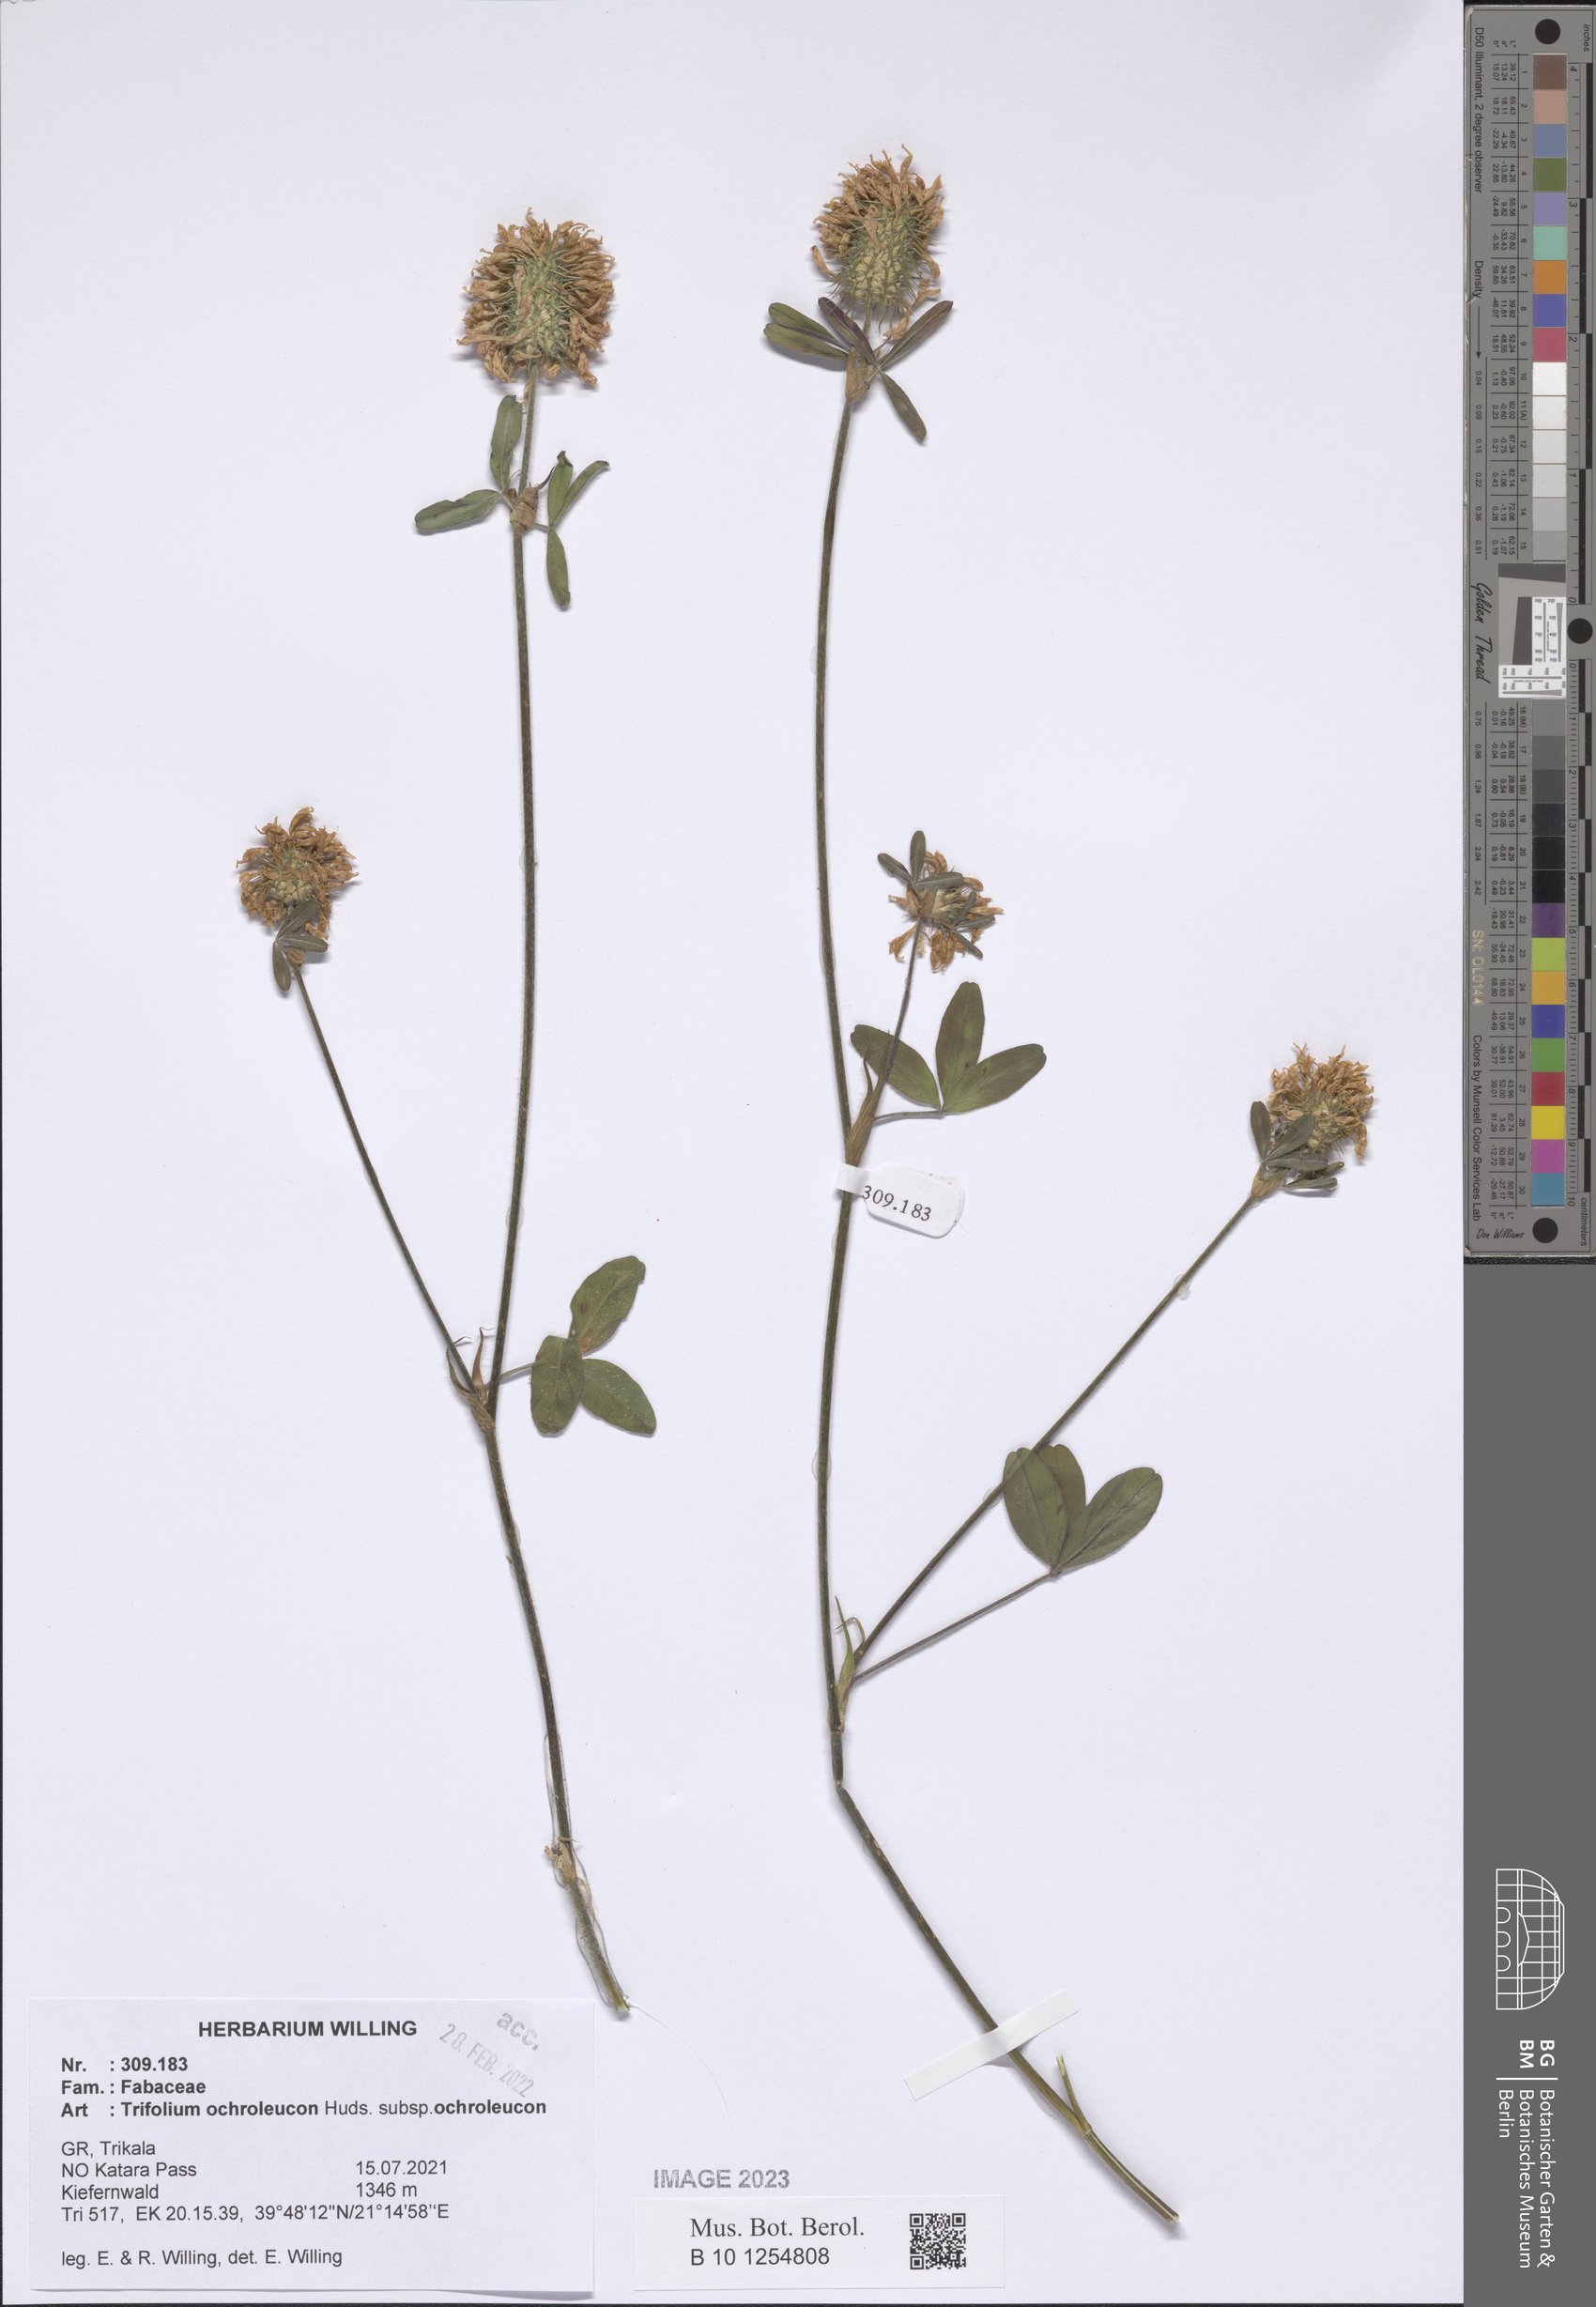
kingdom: Plantae
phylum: Tracheophyta
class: Magnoliopsida
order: Fabales
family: Fabaceae
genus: Trifolium
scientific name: Trifolium ochroleucon
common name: Sulphur clover
